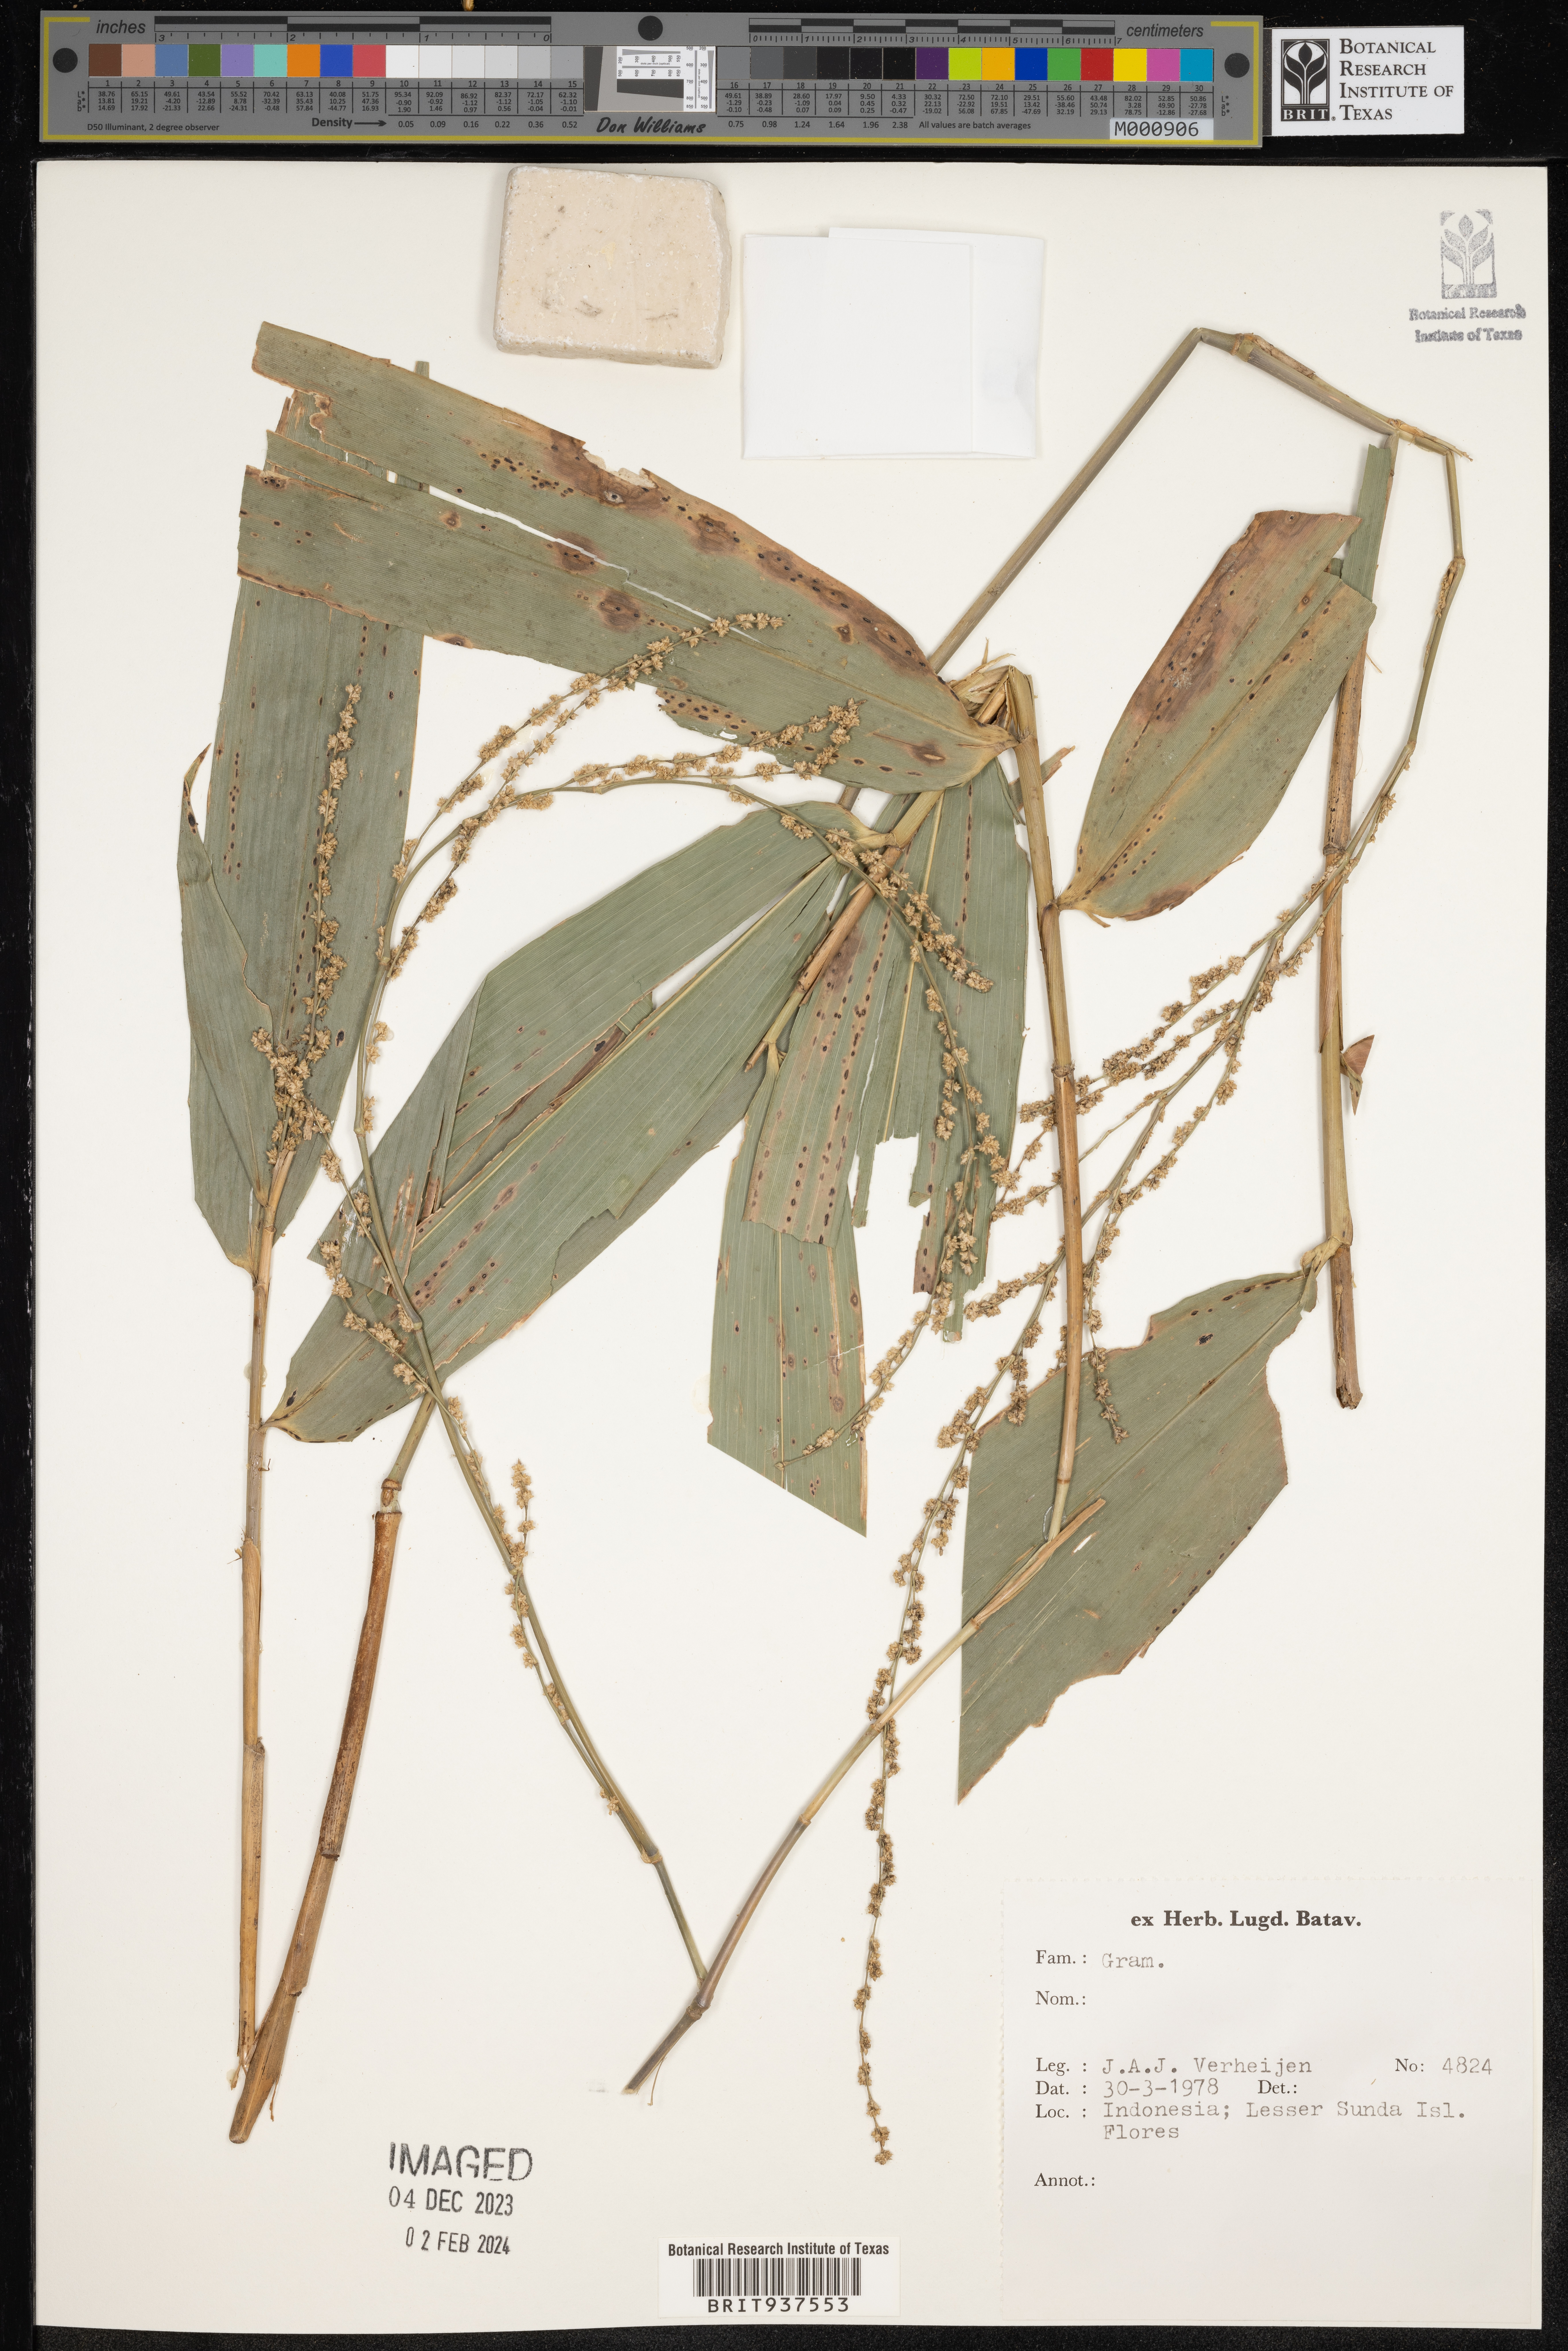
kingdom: Plantae
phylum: Tracheophyta
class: Liliopsida
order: Poales
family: Poaceae
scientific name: Poaceae
